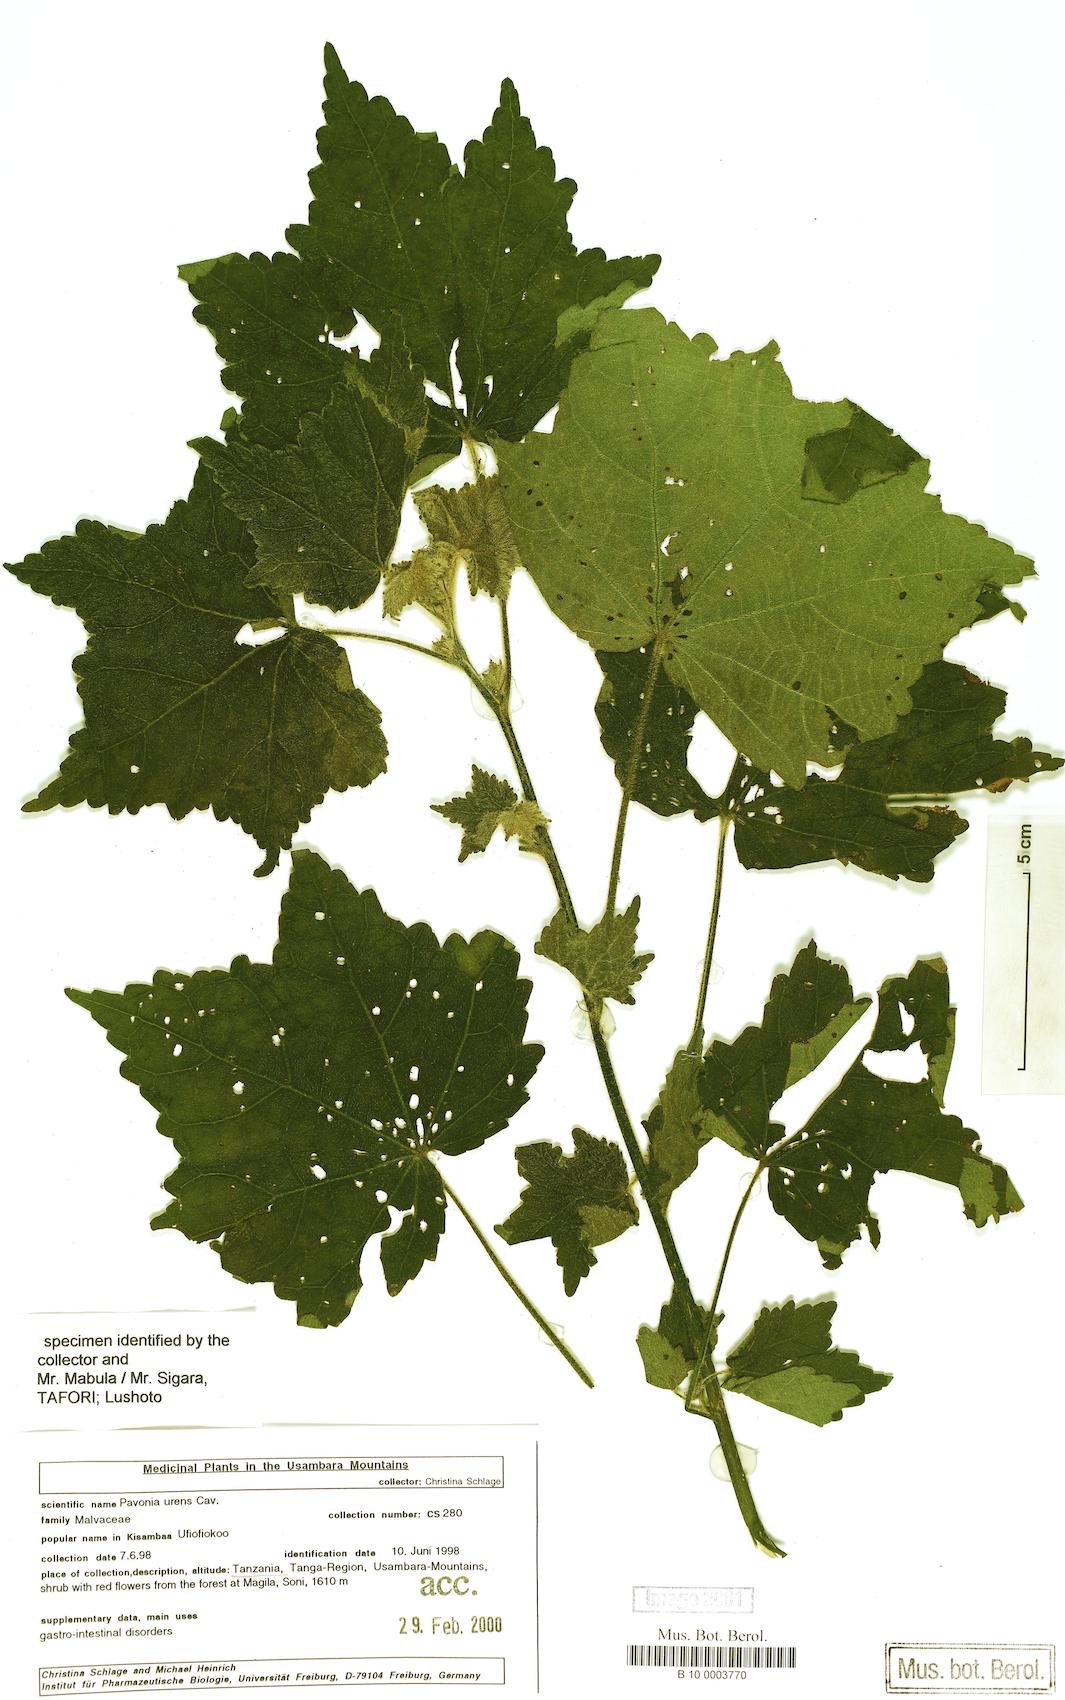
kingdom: Plantae
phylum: Tracheophyta
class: Magnoliopsida
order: Malvales
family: Malvaceae
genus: Pavonia
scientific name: Pavonia urens
